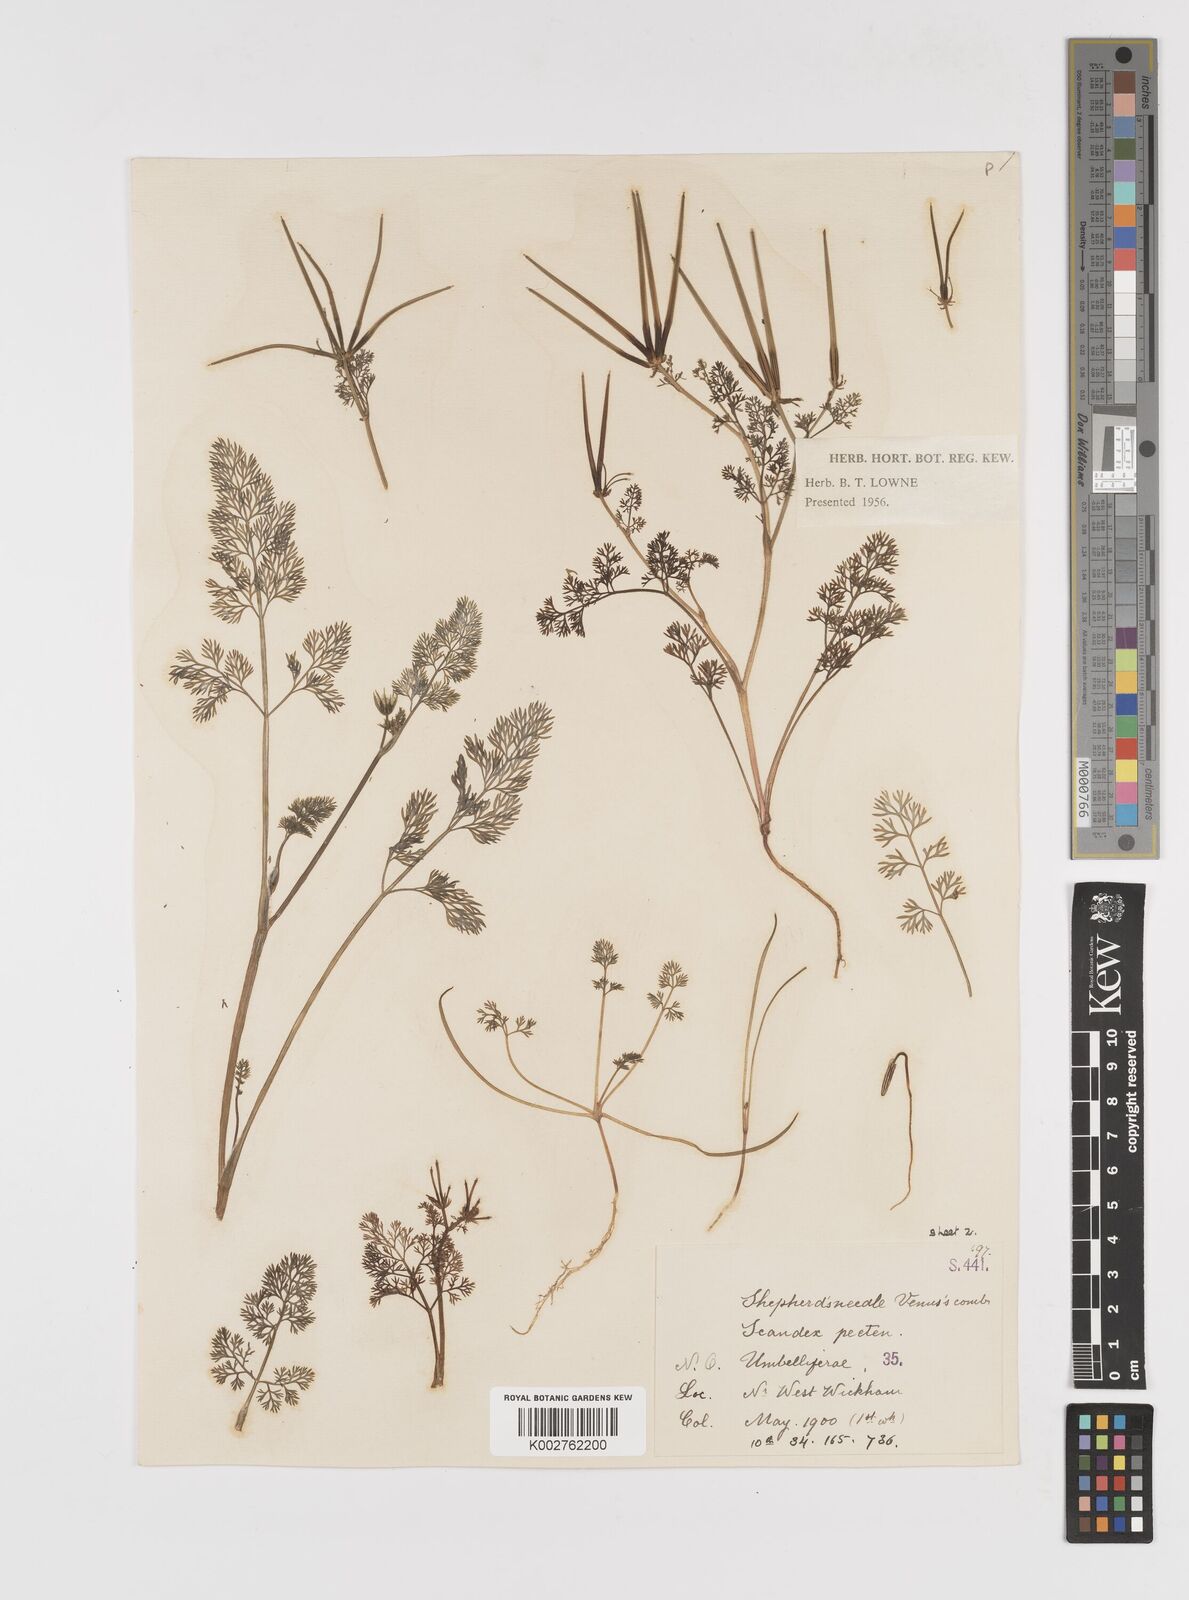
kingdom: Plantae
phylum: Tracheophyta
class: Magnoliopsida
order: Apiales
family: Apiaceae
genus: Scandix
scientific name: Scandix pecten-veneris
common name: Shepherd's-needle
